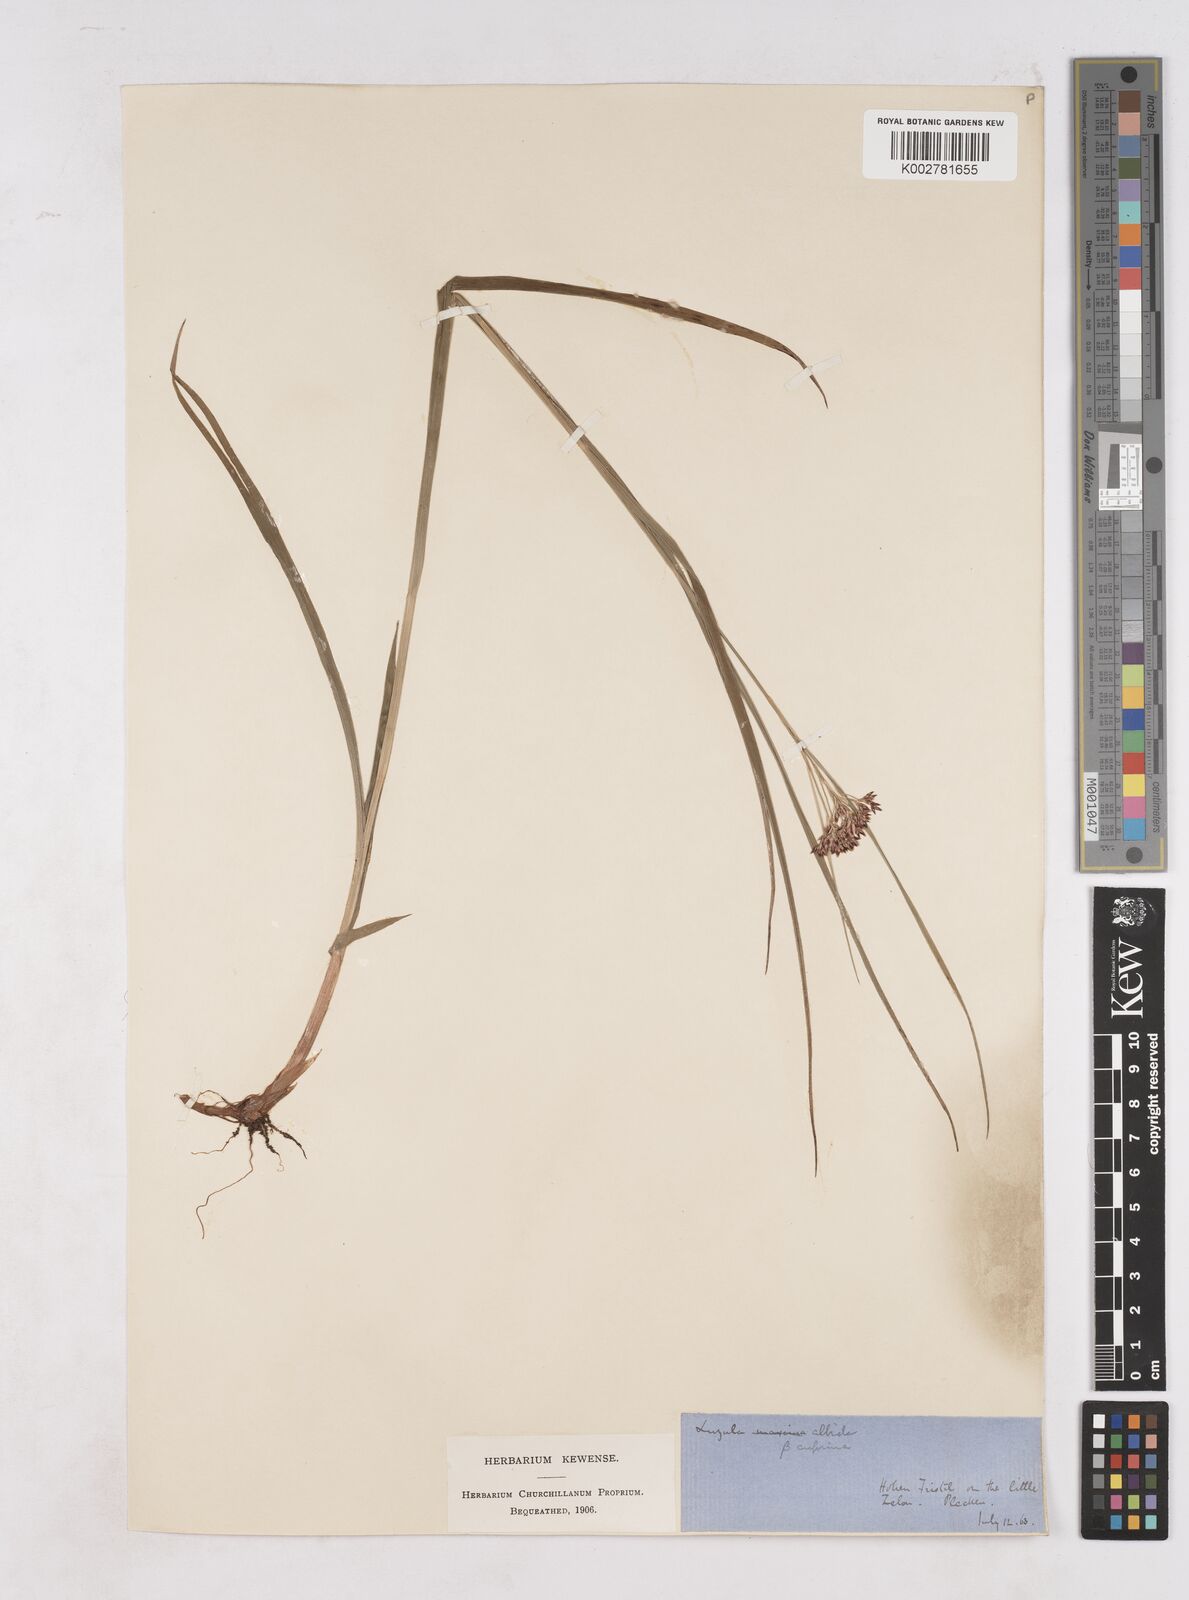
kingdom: Plantae
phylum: Tracheophyta
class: Liliopsida
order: Poales
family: Juncaceae
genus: Luzula
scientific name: Luzula luzuloides
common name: White wood-rush
